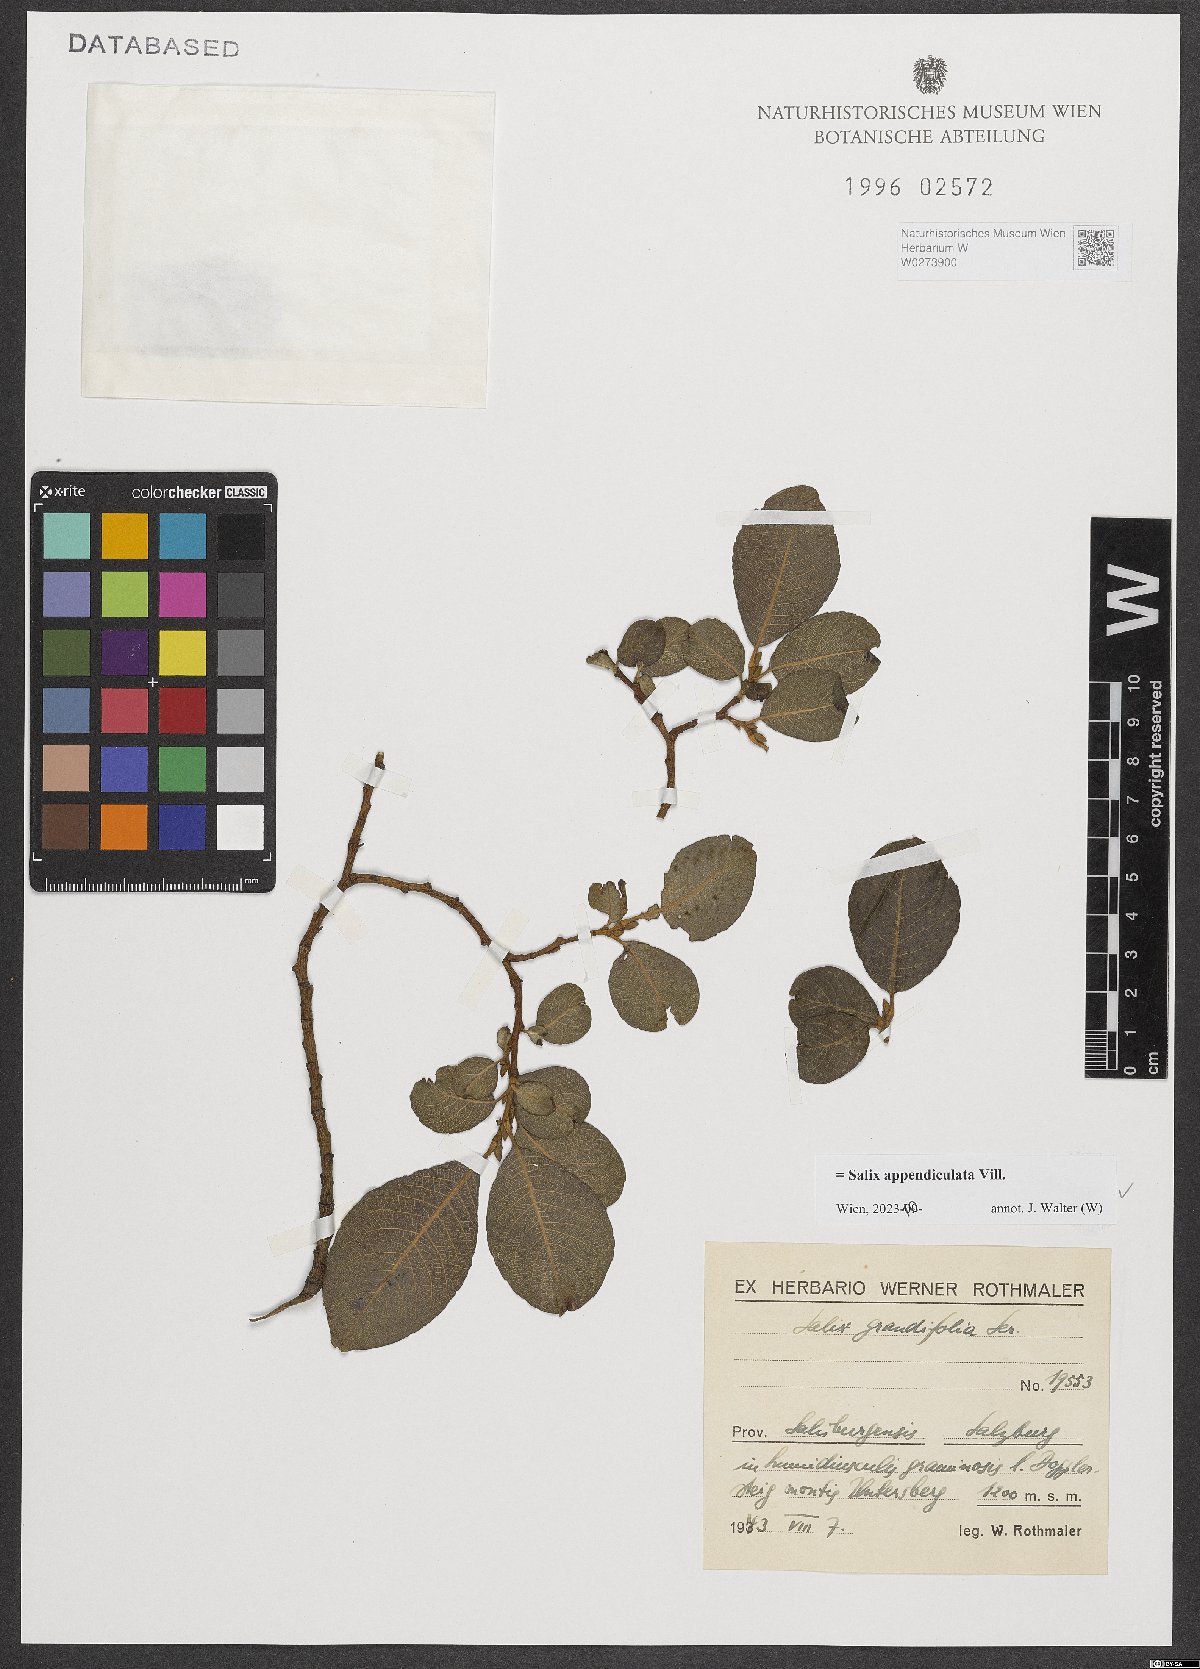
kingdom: Plantae
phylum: Tracheophyta
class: Magnoliopsida
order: Malpighiales
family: Salicaceae
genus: Salix
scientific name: Salix appendiculata
